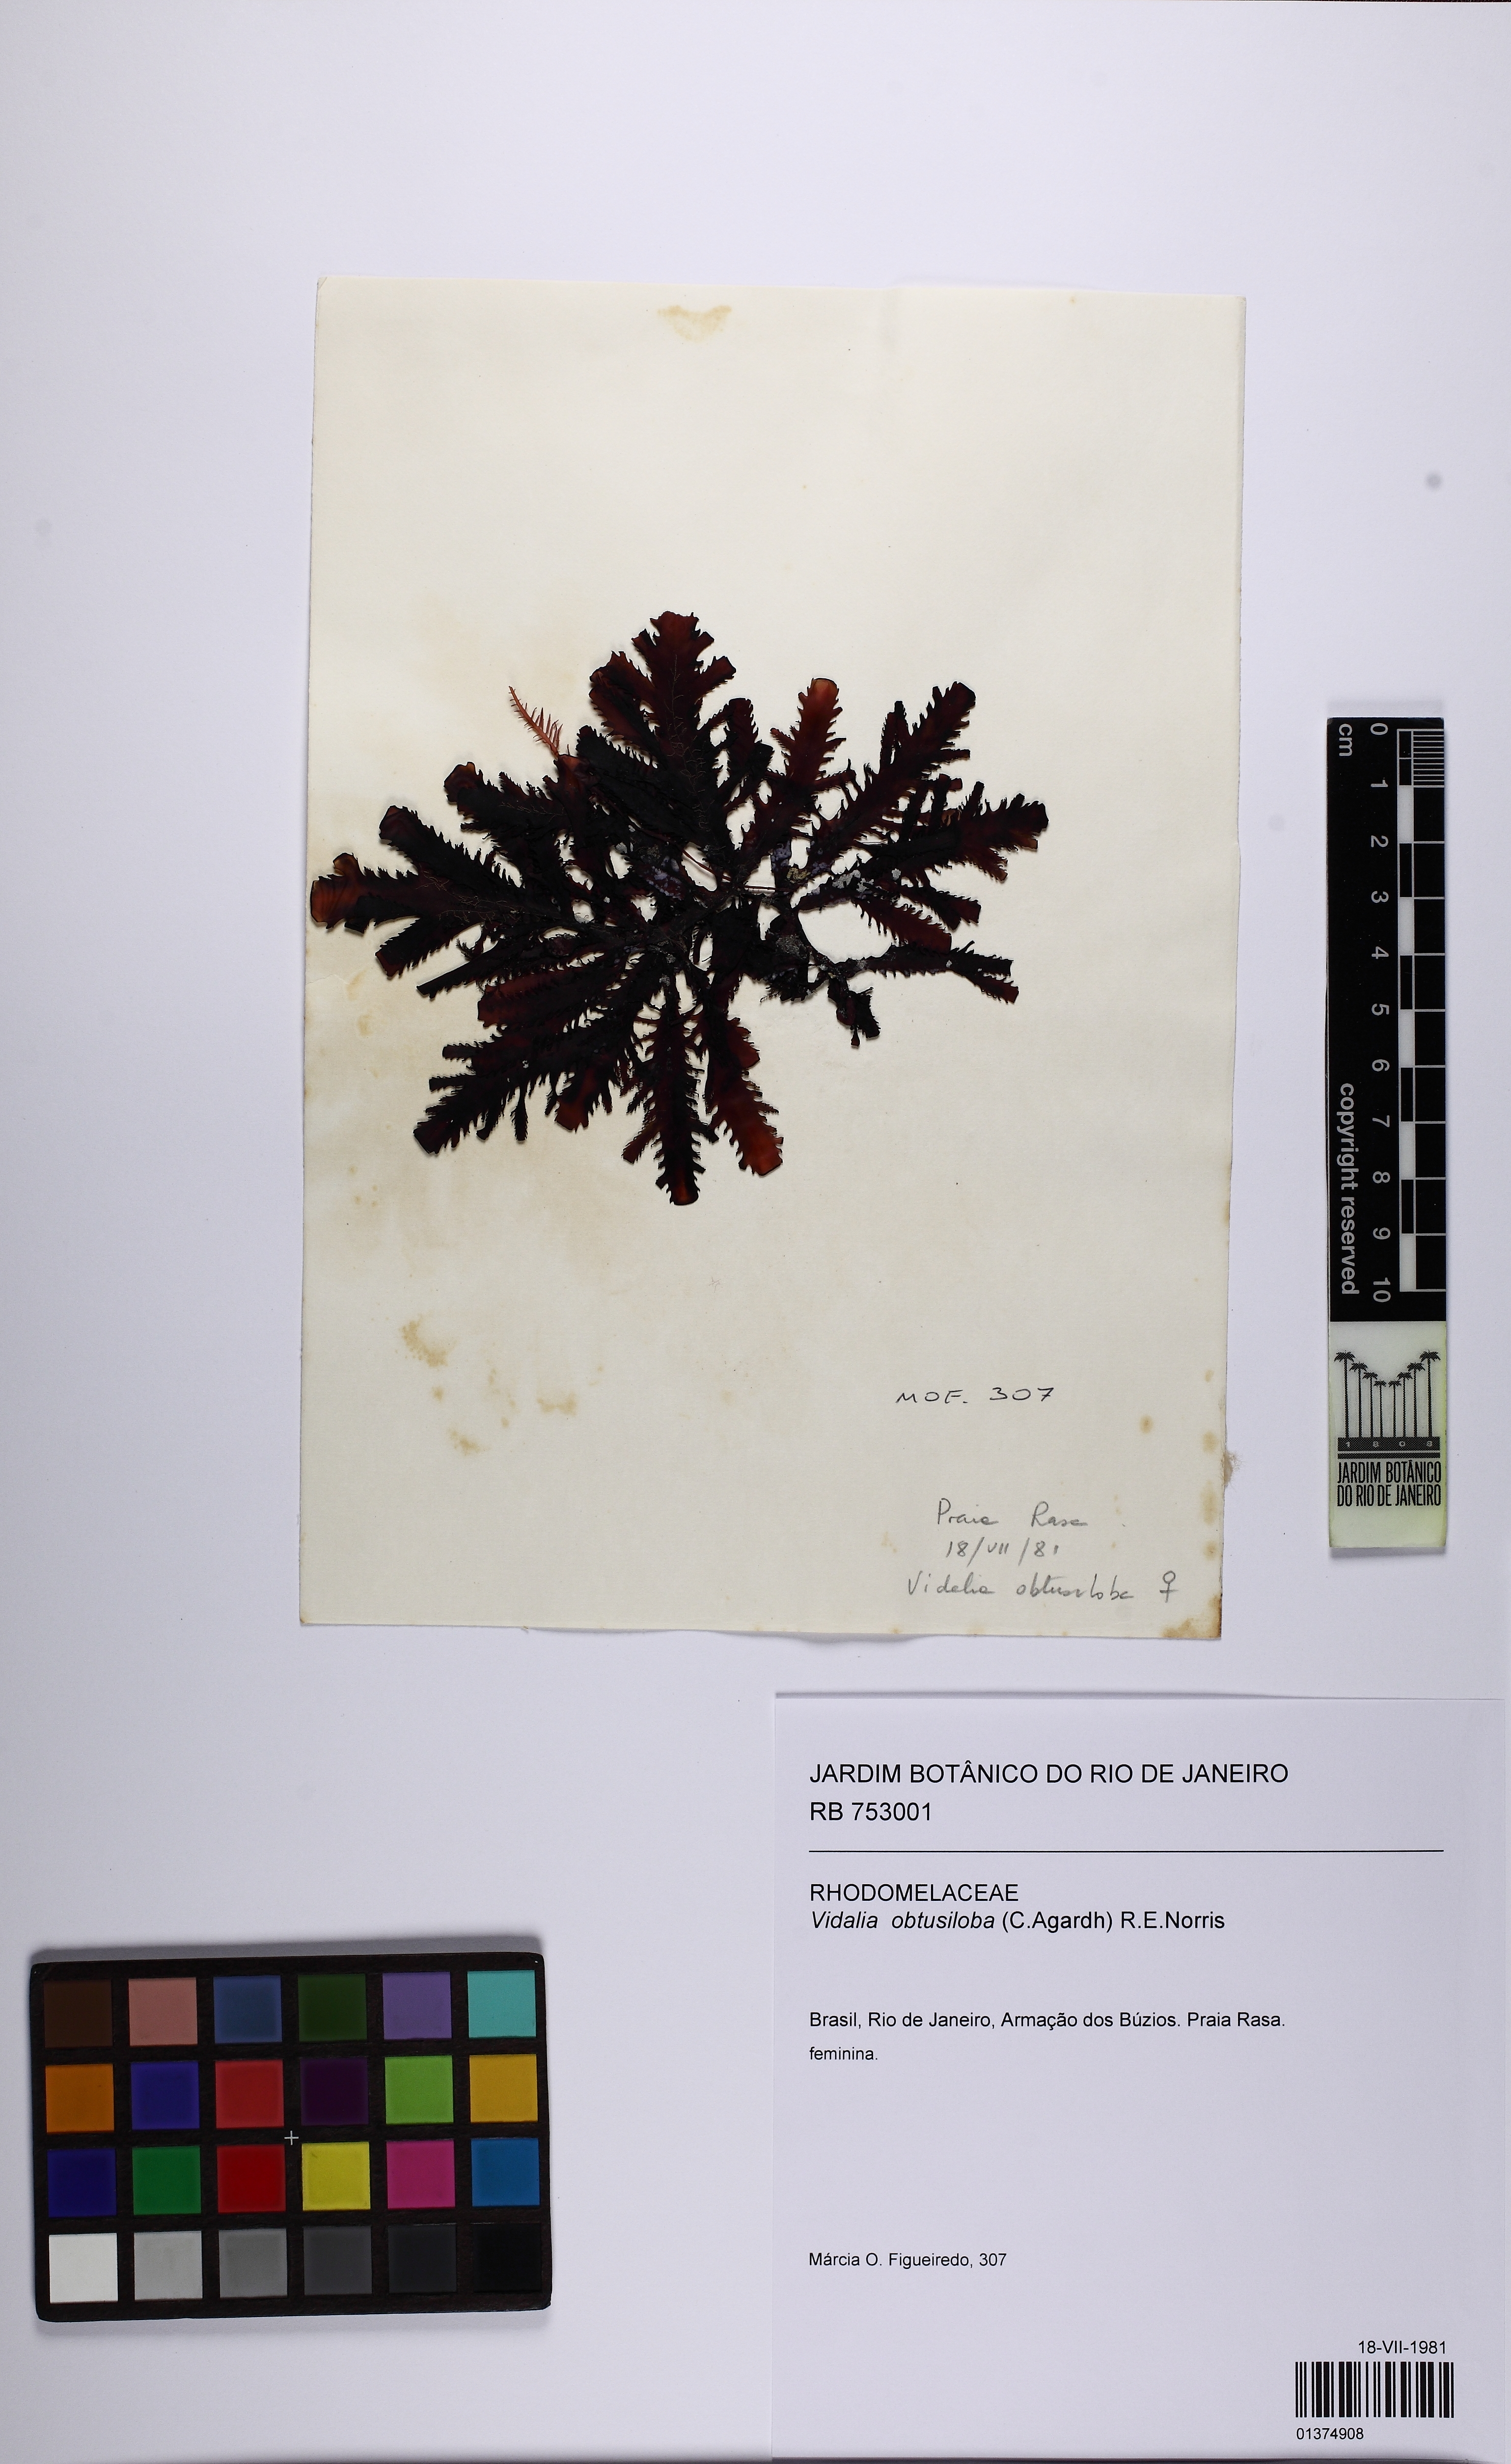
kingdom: Plantae
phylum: Rhodophyta
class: Florideophyceae
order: Ceramiales
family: Rhodomelaceae
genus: Osmundaria
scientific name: Osmundaria obtusiloba
